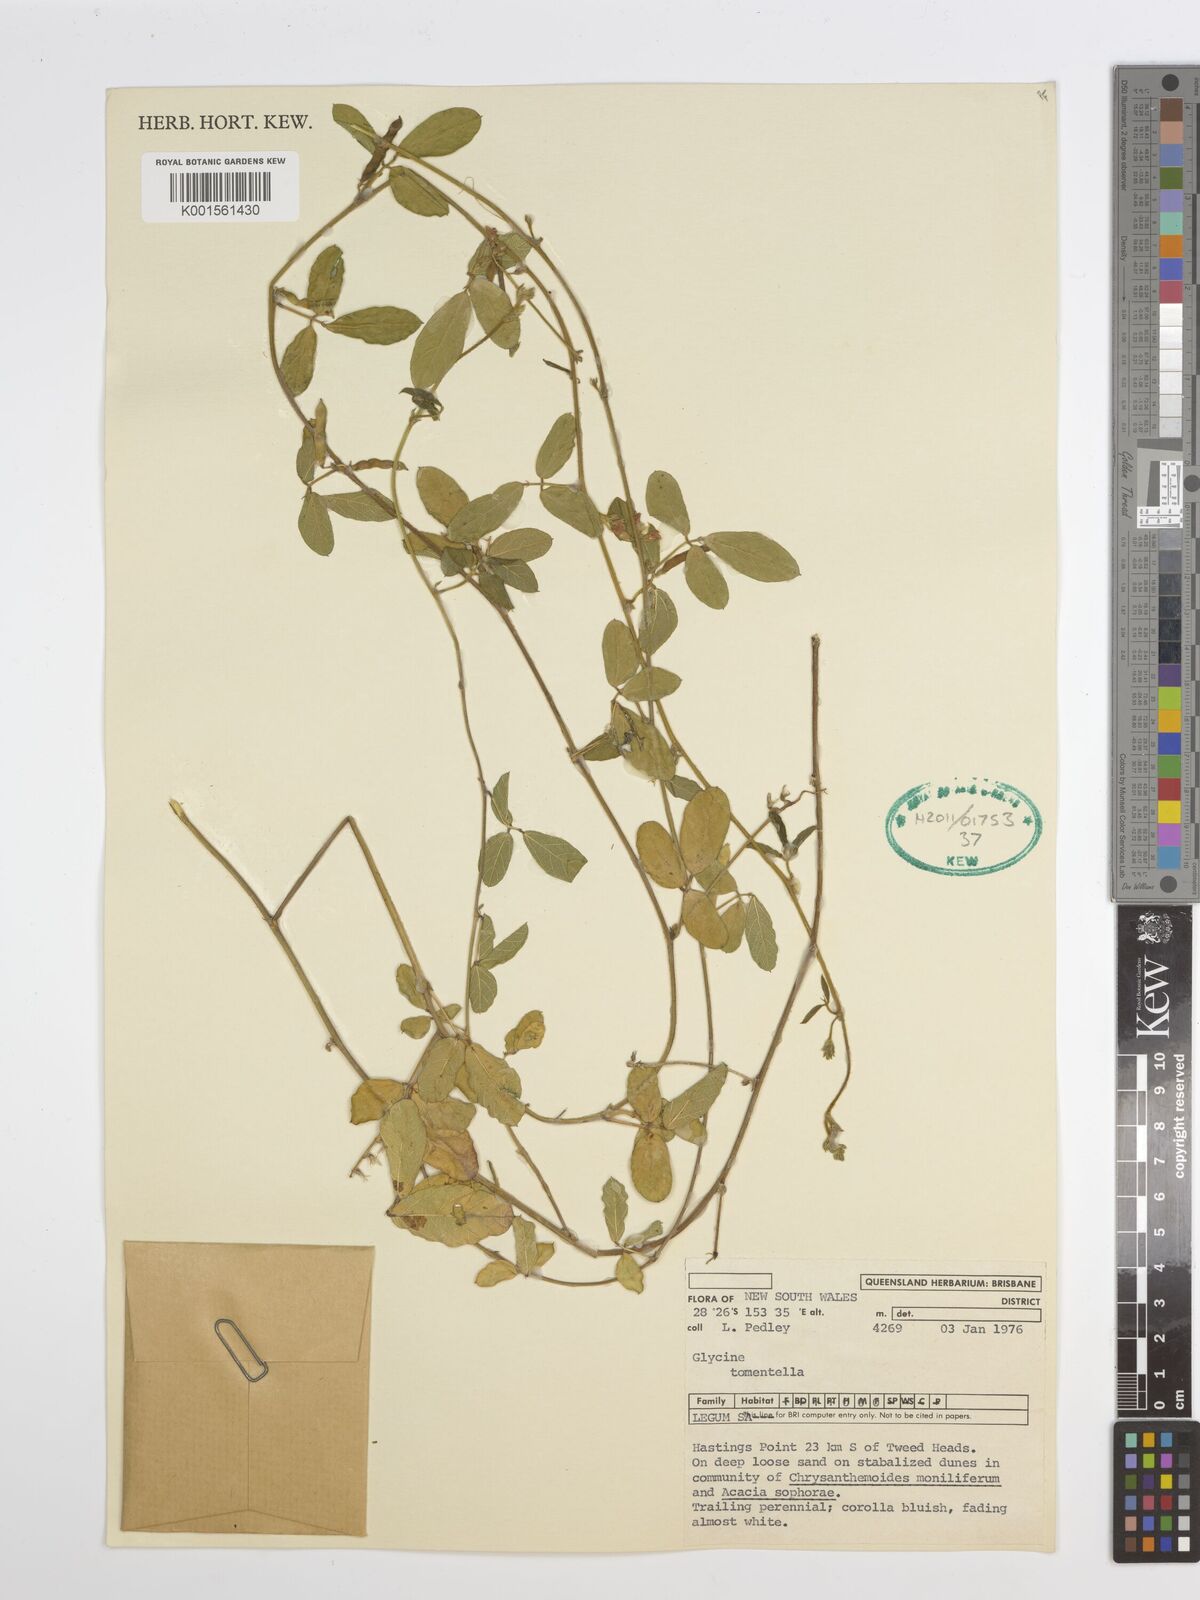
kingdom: Plantae
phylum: Tracheophyta
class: Magnoliopsida
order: Fabales
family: Fabaceae
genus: Glycine
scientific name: Glycine tomentella
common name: Hairy glycine
